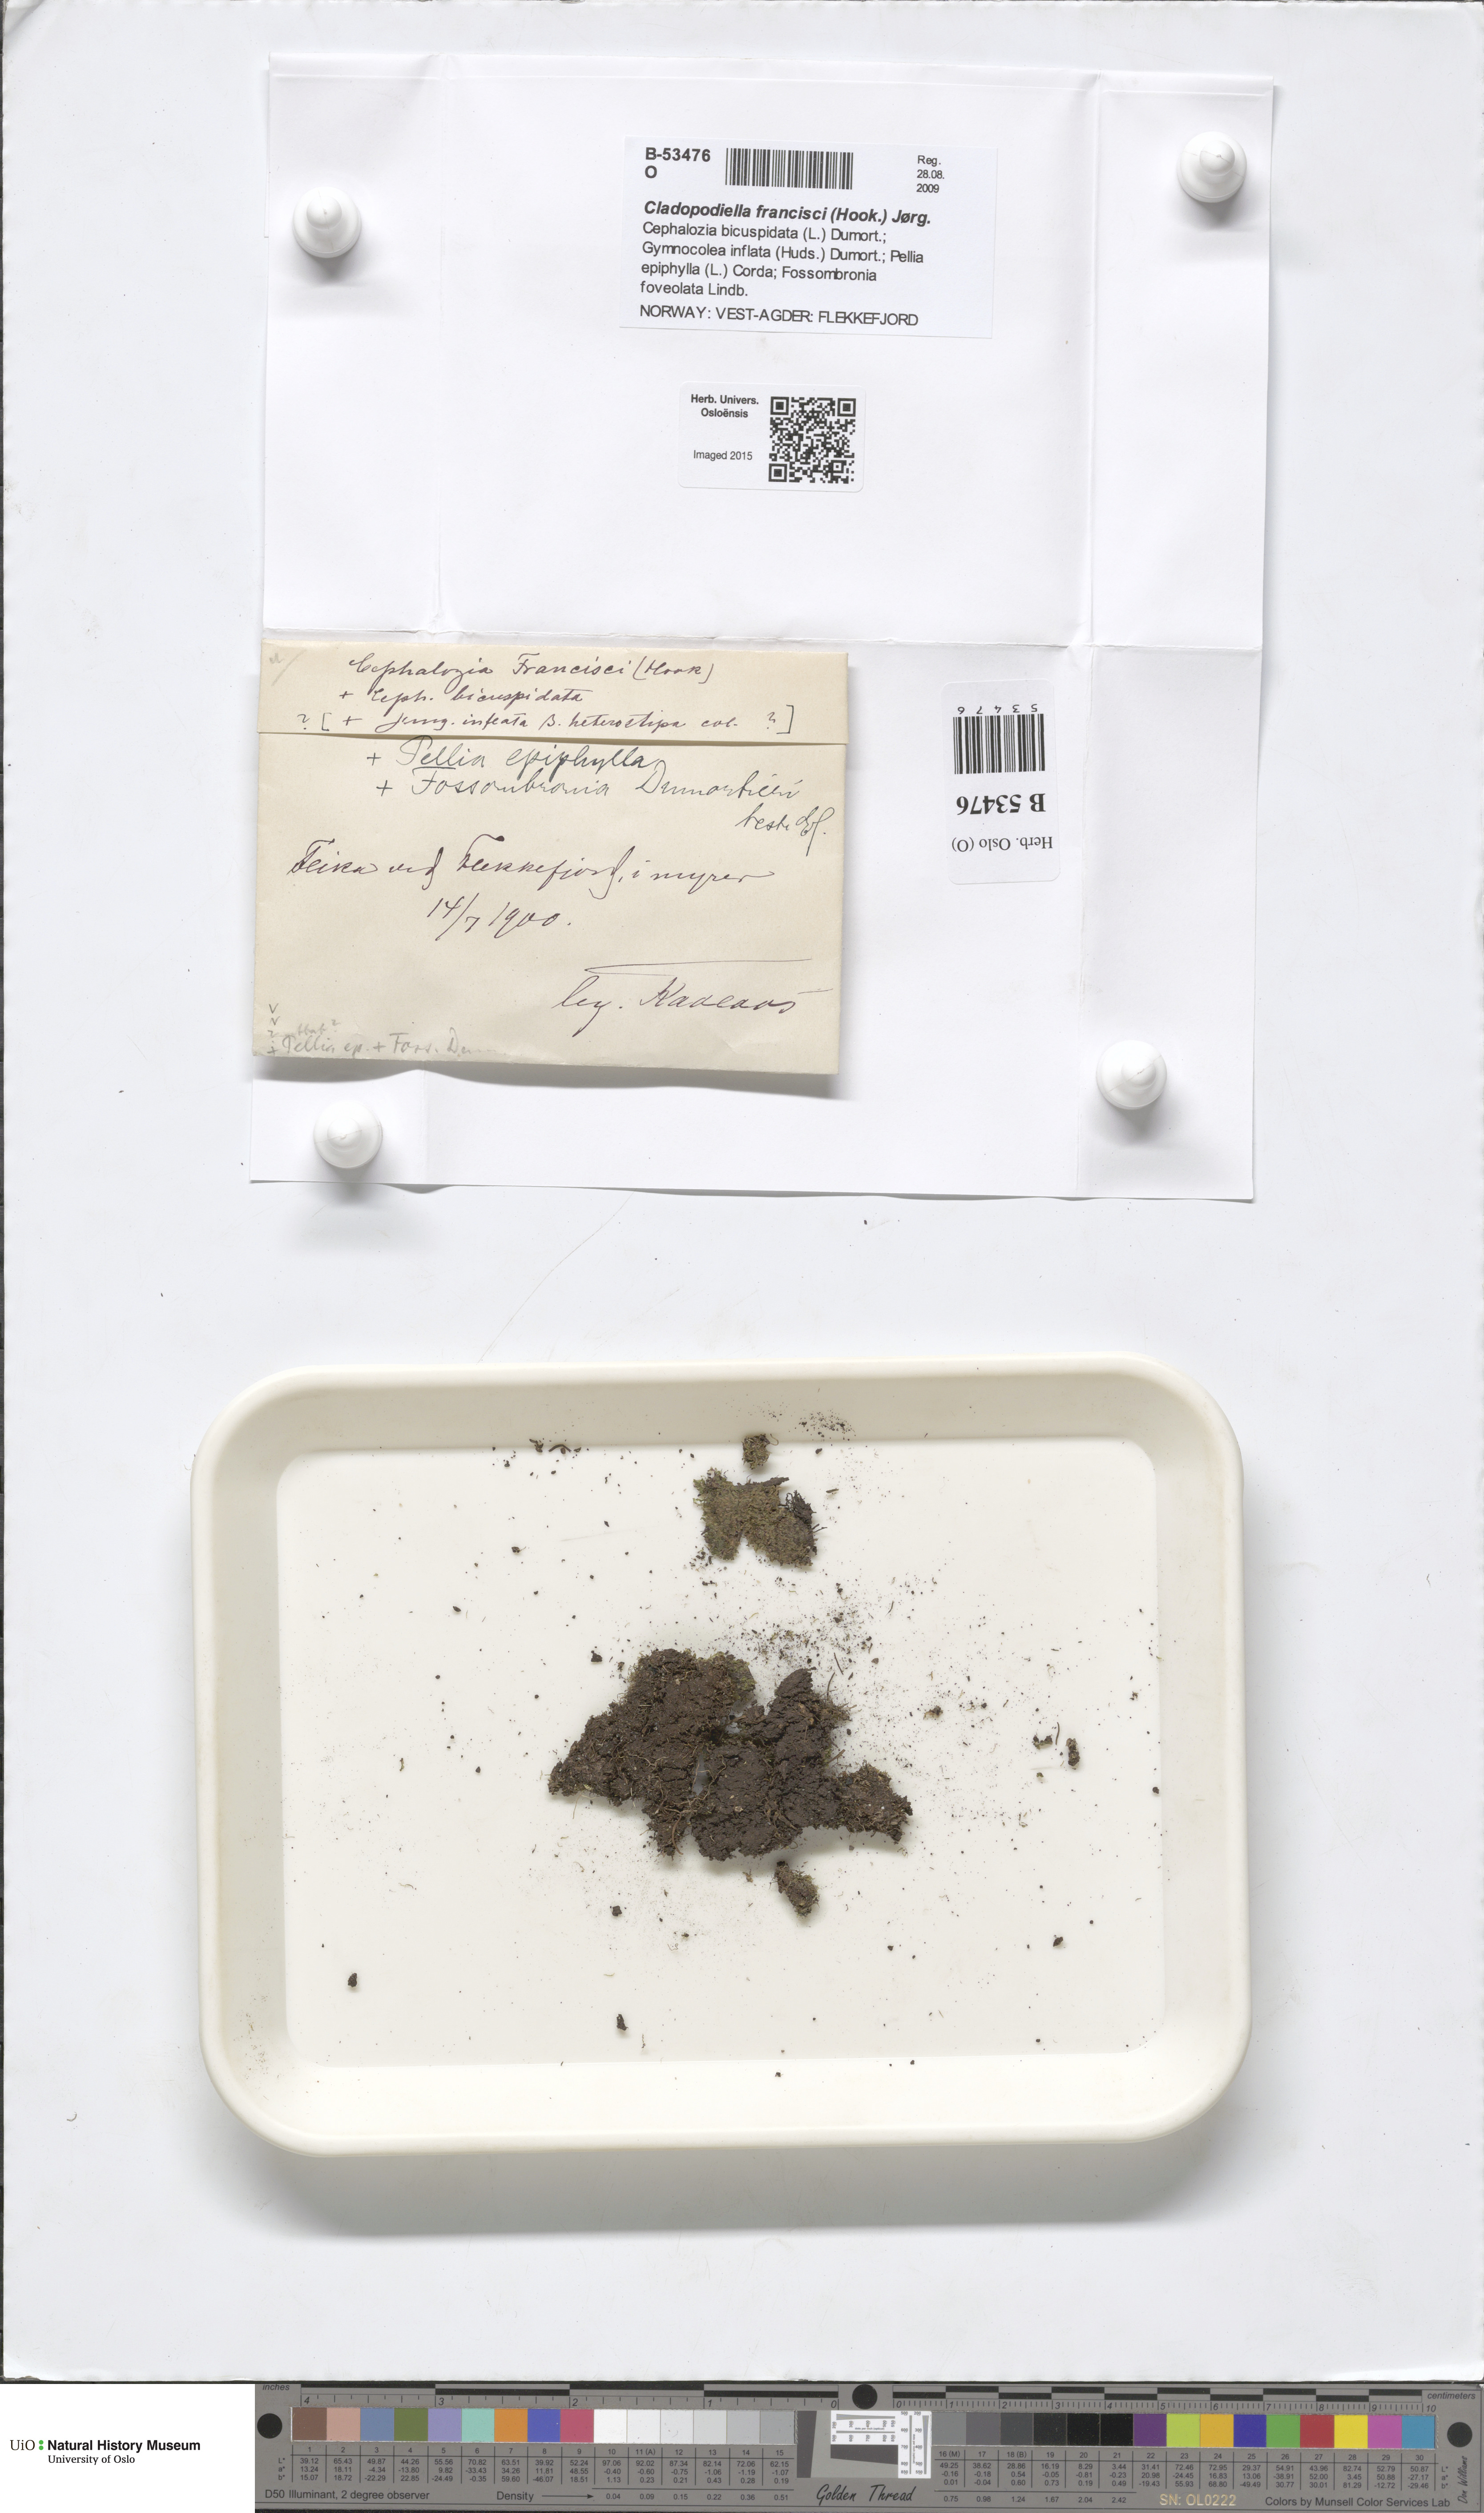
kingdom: Plantae
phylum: Marchantiophyta
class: Jungermanniopsida
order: Jungermanniales
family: Cephaloziaceae
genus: Odontoschisma
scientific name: Odontoschisma francisci
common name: Holt notchwort
